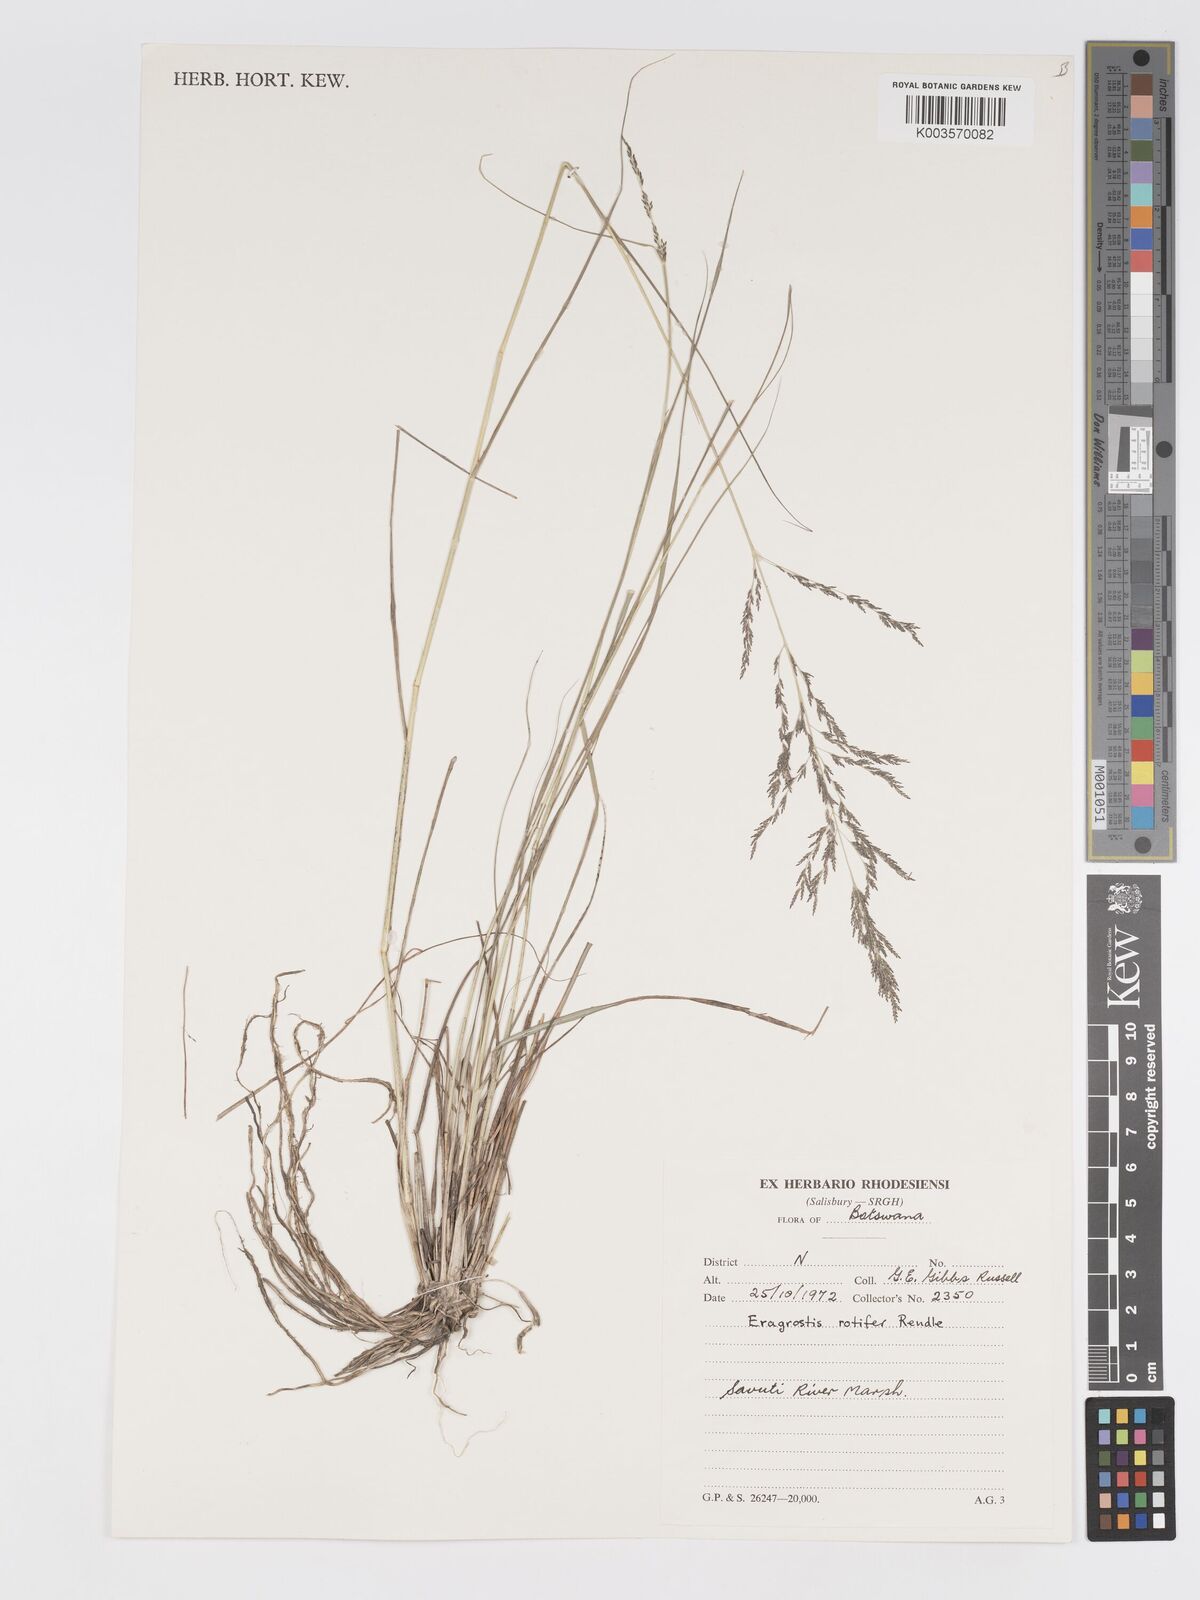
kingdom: Plantae
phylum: Tracheophyta
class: Liliopsida
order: Poales
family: Poaceae
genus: Eragrostis
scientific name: Eragrostis rotifer
